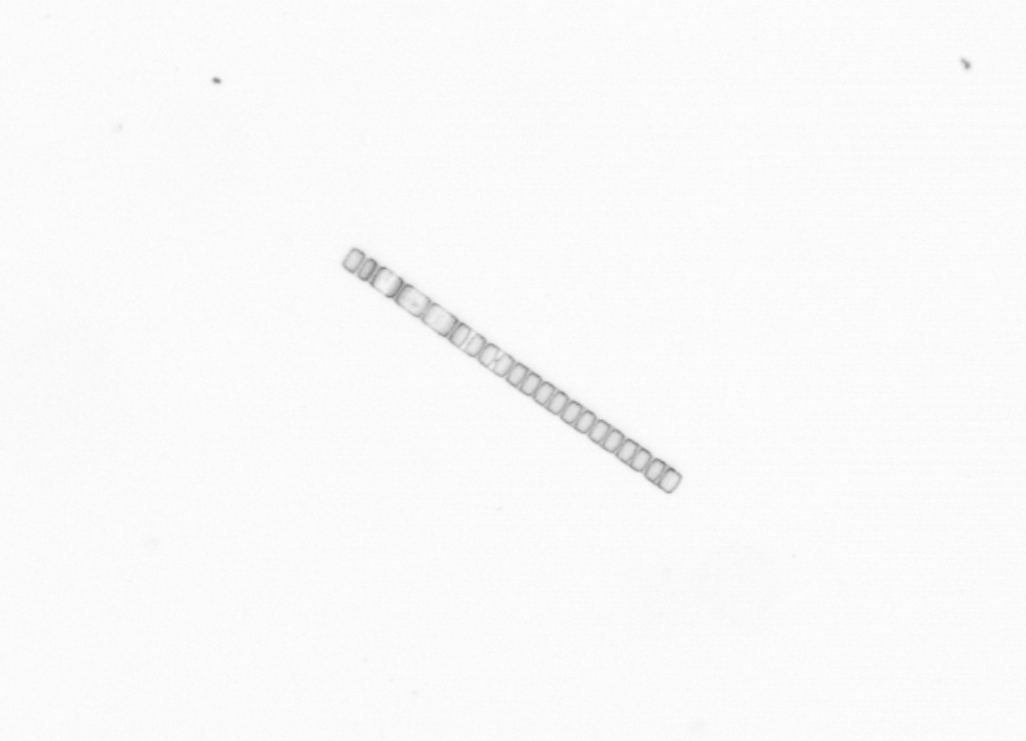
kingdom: Chromista
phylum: Ochrophyta
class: Bacillariophyceae
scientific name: Bacillariophyceae
